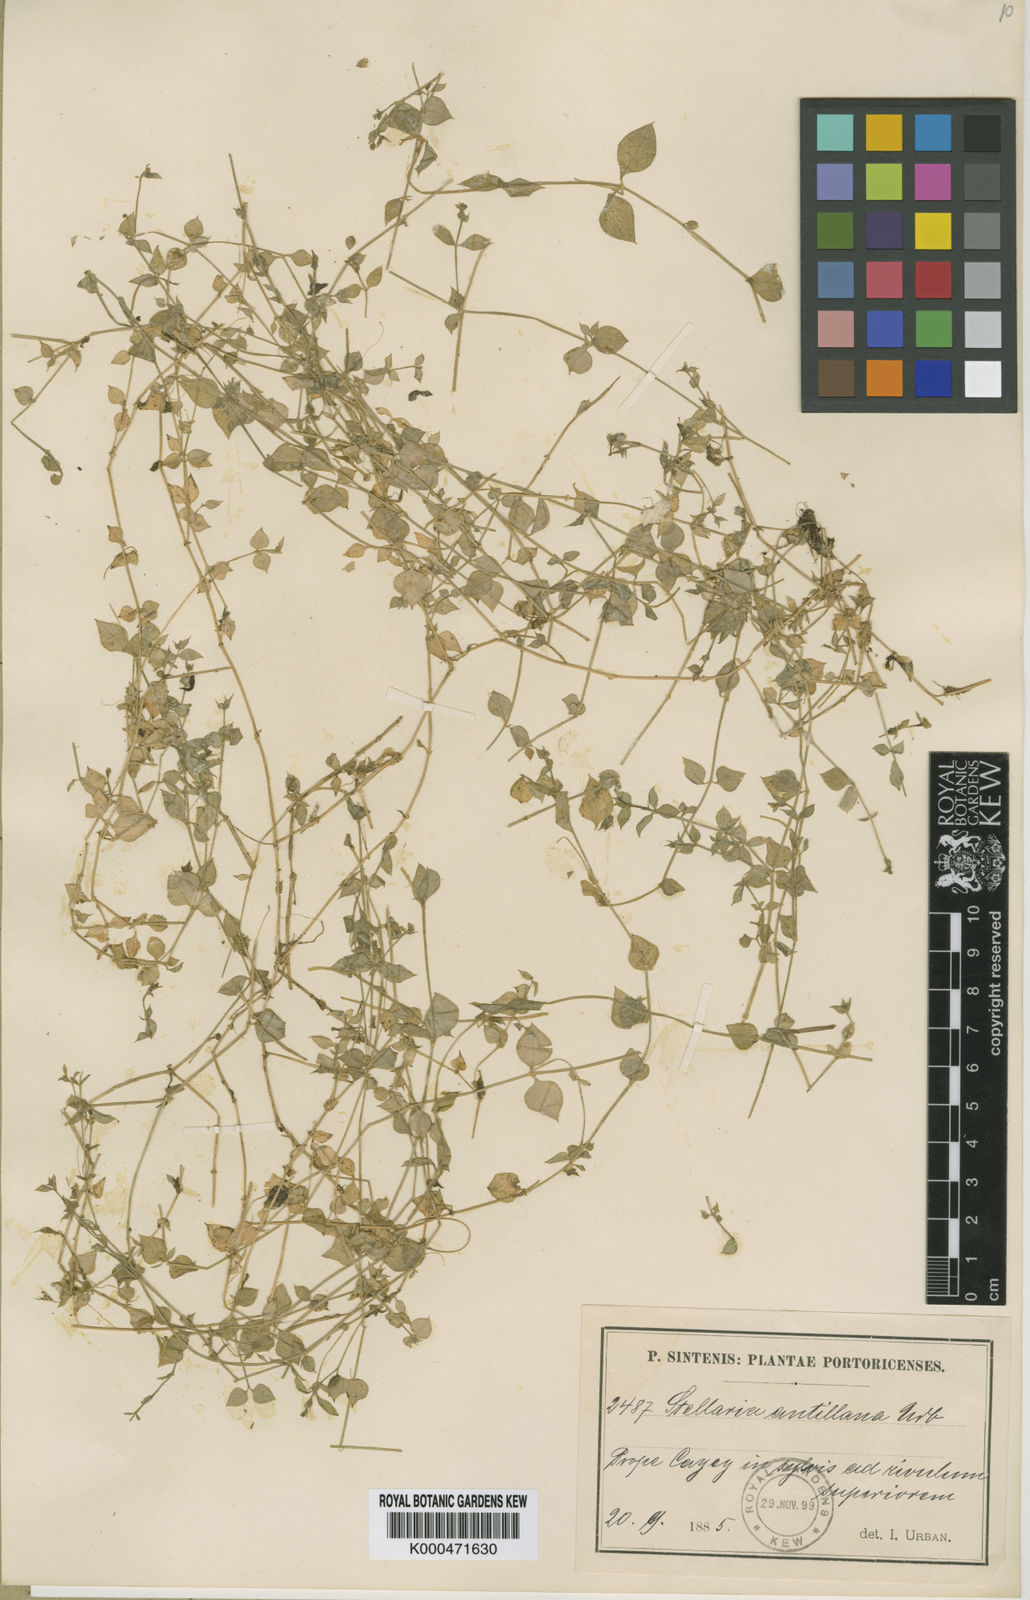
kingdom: Plantae
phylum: Tracheophyta
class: Magnoliopsida
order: Caryophyllales
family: Caryophyllaceae
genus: Stellaria
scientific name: Stellaria antillana
